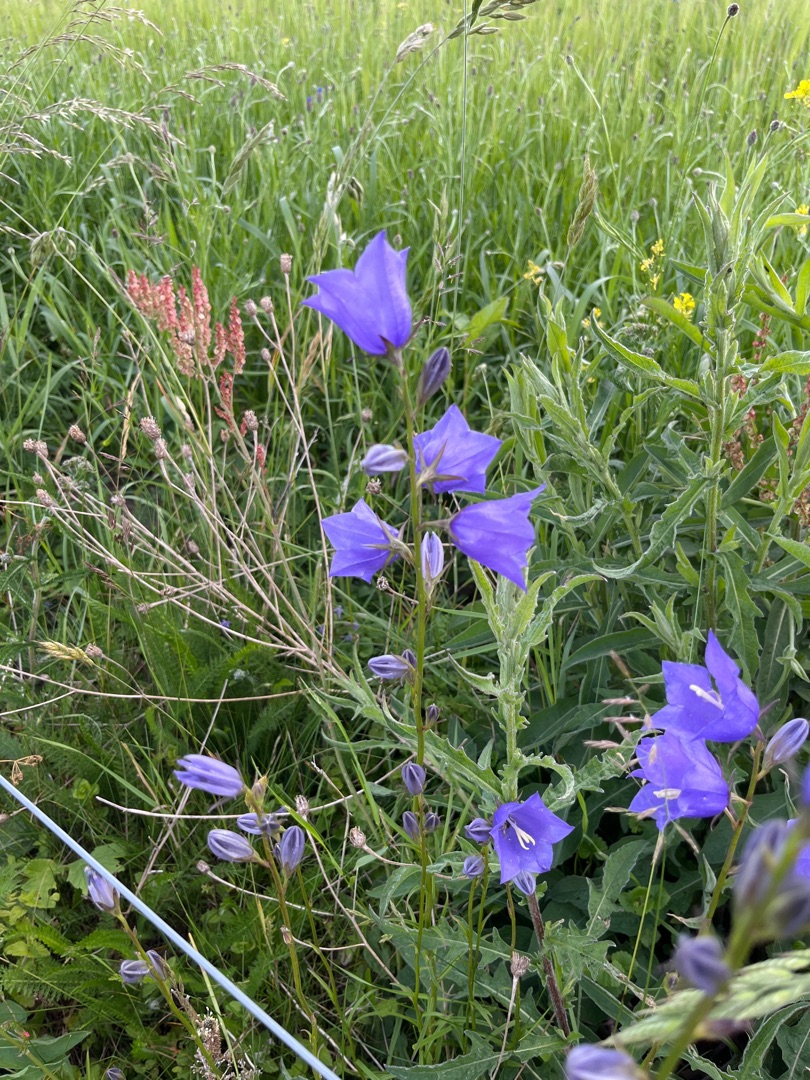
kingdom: Plantae
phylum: Tracheophyta
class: Magnoliopsida
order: Asterales
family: Campanulaceae
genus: Campanula
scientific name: Campanula persicifolia
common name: Smalbladet klokke
